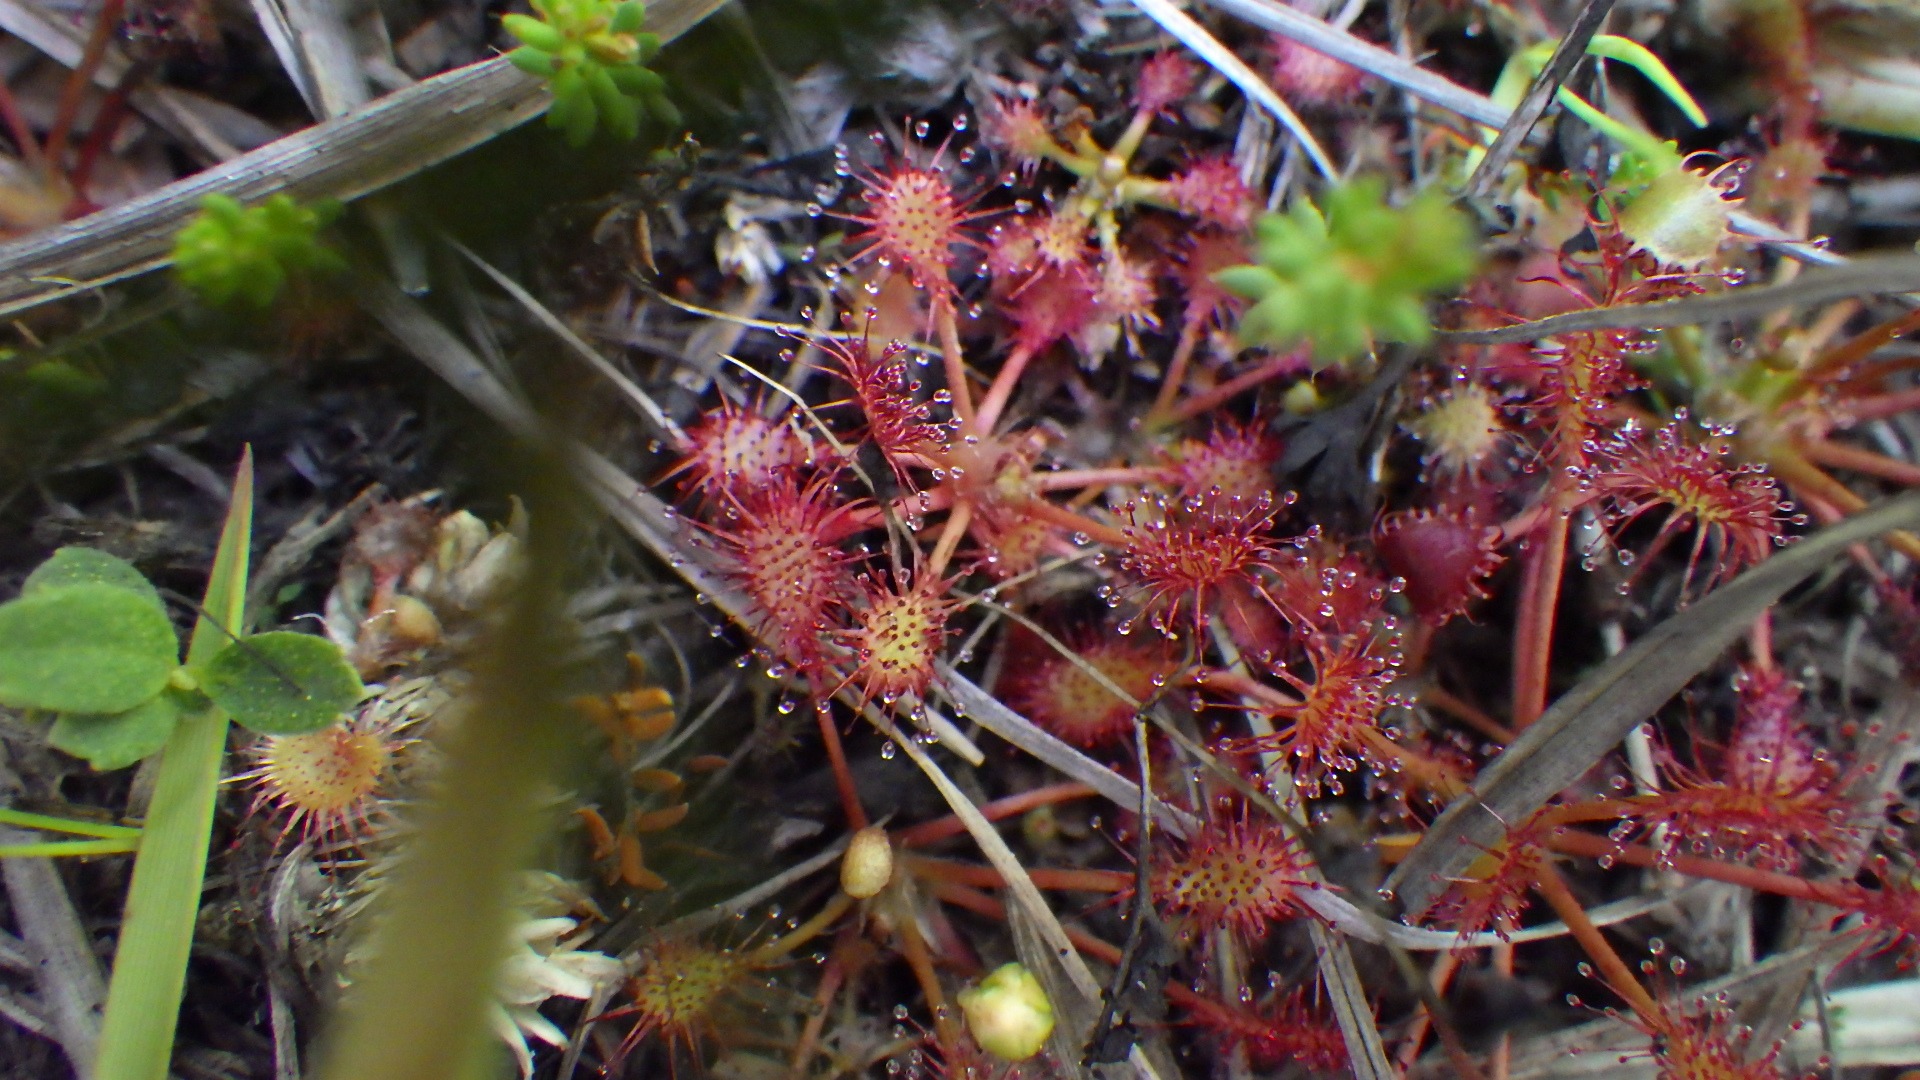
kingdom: Plantae
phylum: Tracheophyta
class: Magnoliopsida
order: Caryophyllales
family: Droseraceae
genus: Drosera
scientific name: Drosera intermedia
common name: Liden soldug
